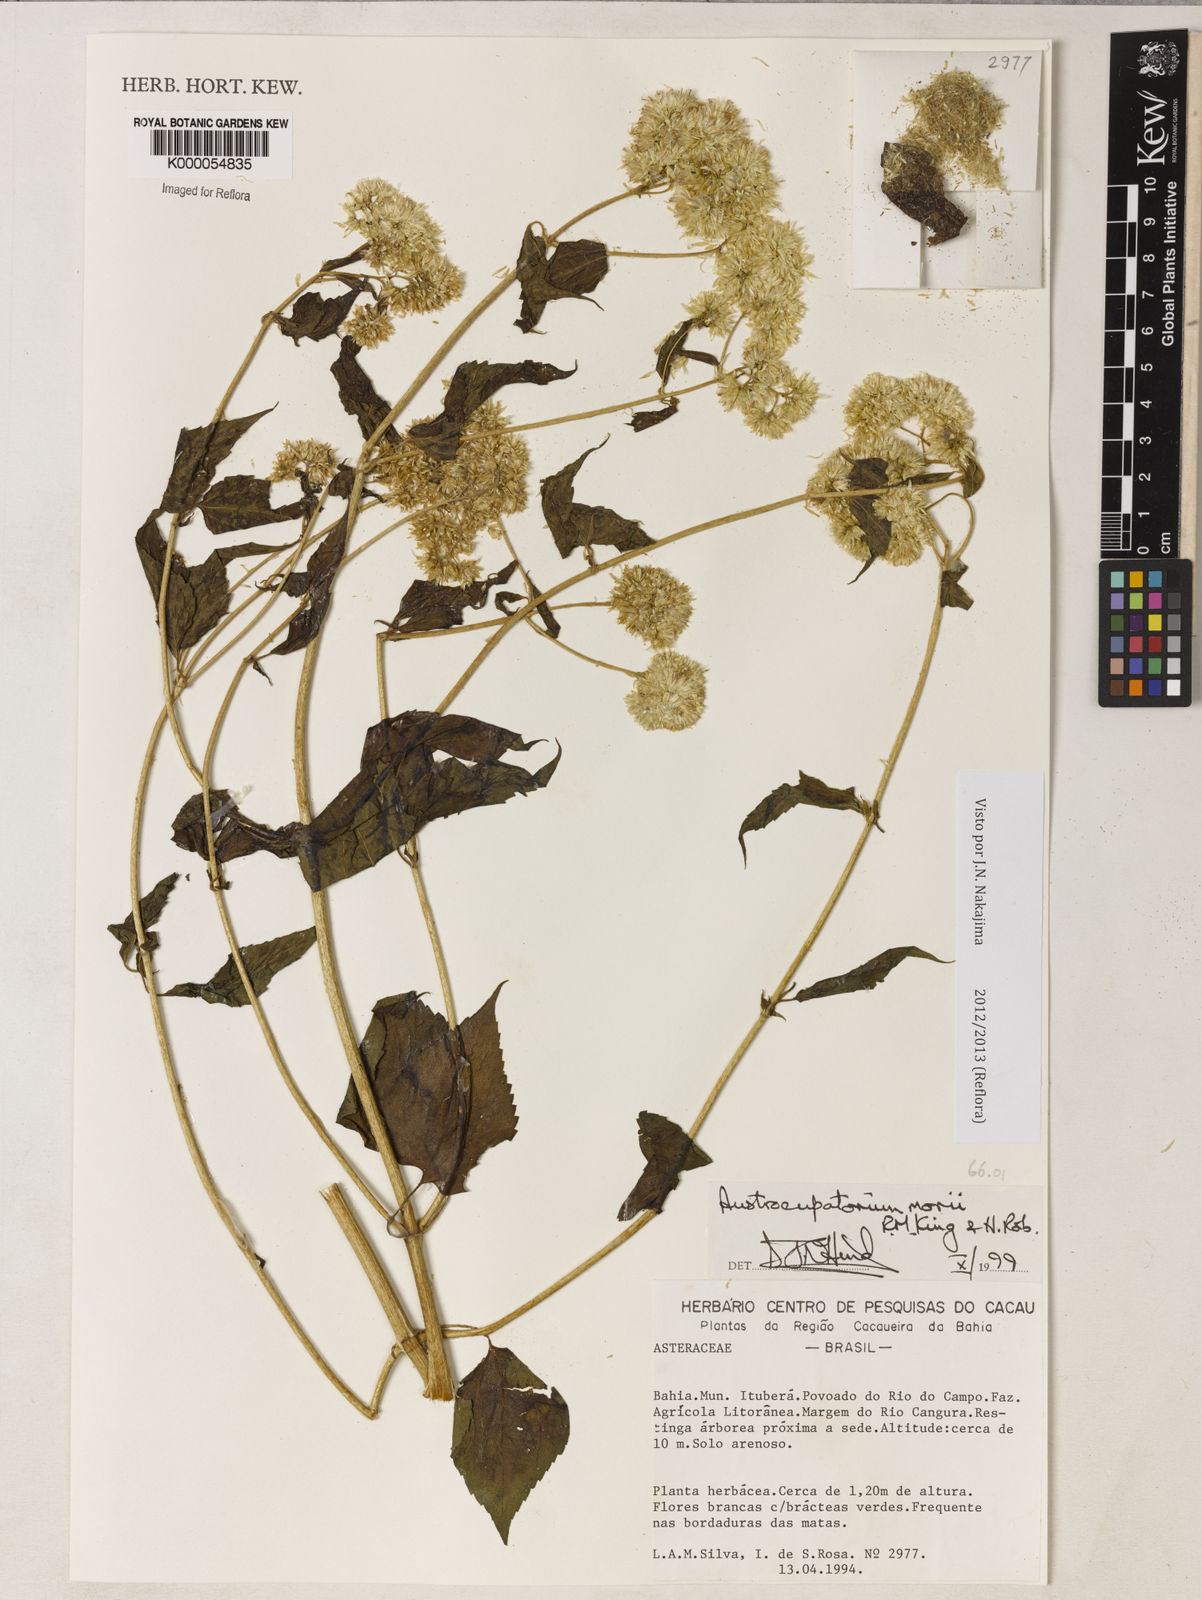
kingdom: Plantae
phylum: Tracheophyta
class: Magnoliopsida
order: Asterales
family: Asteraceae
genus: Austroeupatorium
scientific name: Austroeupatorium morii
